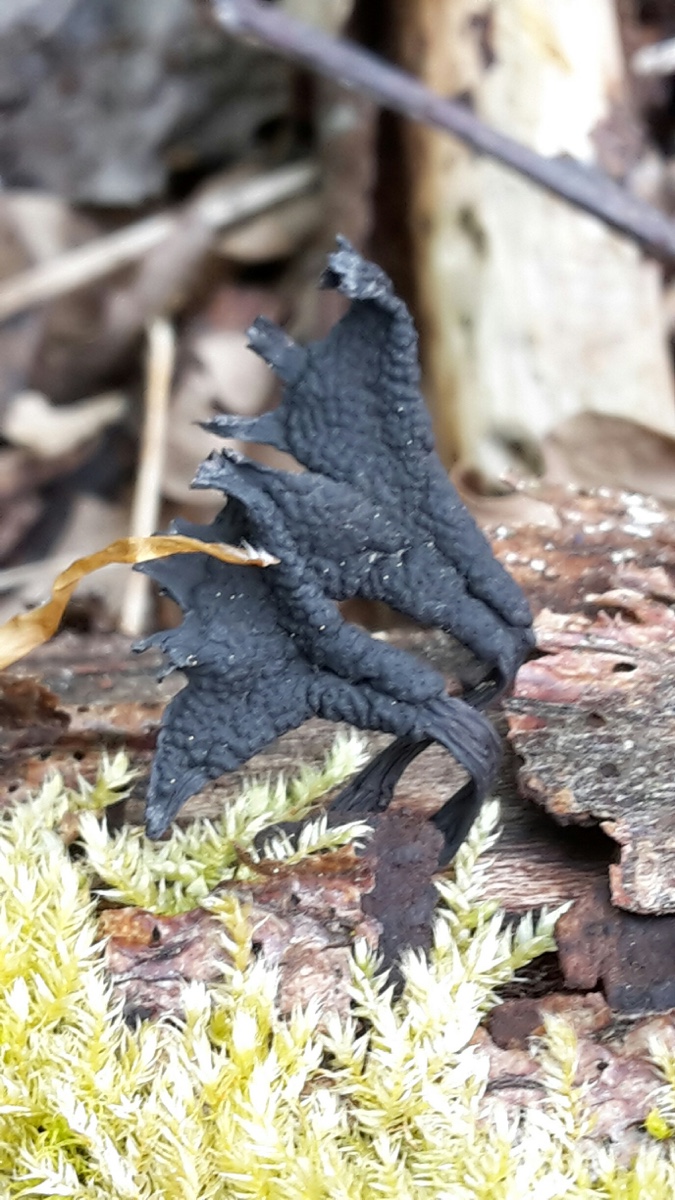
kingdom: Fungi
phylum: Ascomycota
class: Sordariomycetes
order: Xylariales
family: Xylariaceae
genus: Xylaria
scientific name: Xylaria hypoxylon
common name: grenet stødsvamp
